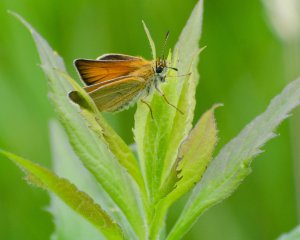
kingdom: Animalia
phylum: Arthropoda
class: Insecta
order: Lepidoptera
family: Hesperiidae
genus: Thymelicus
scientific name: Thymelicus lineola
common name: European Skipper
